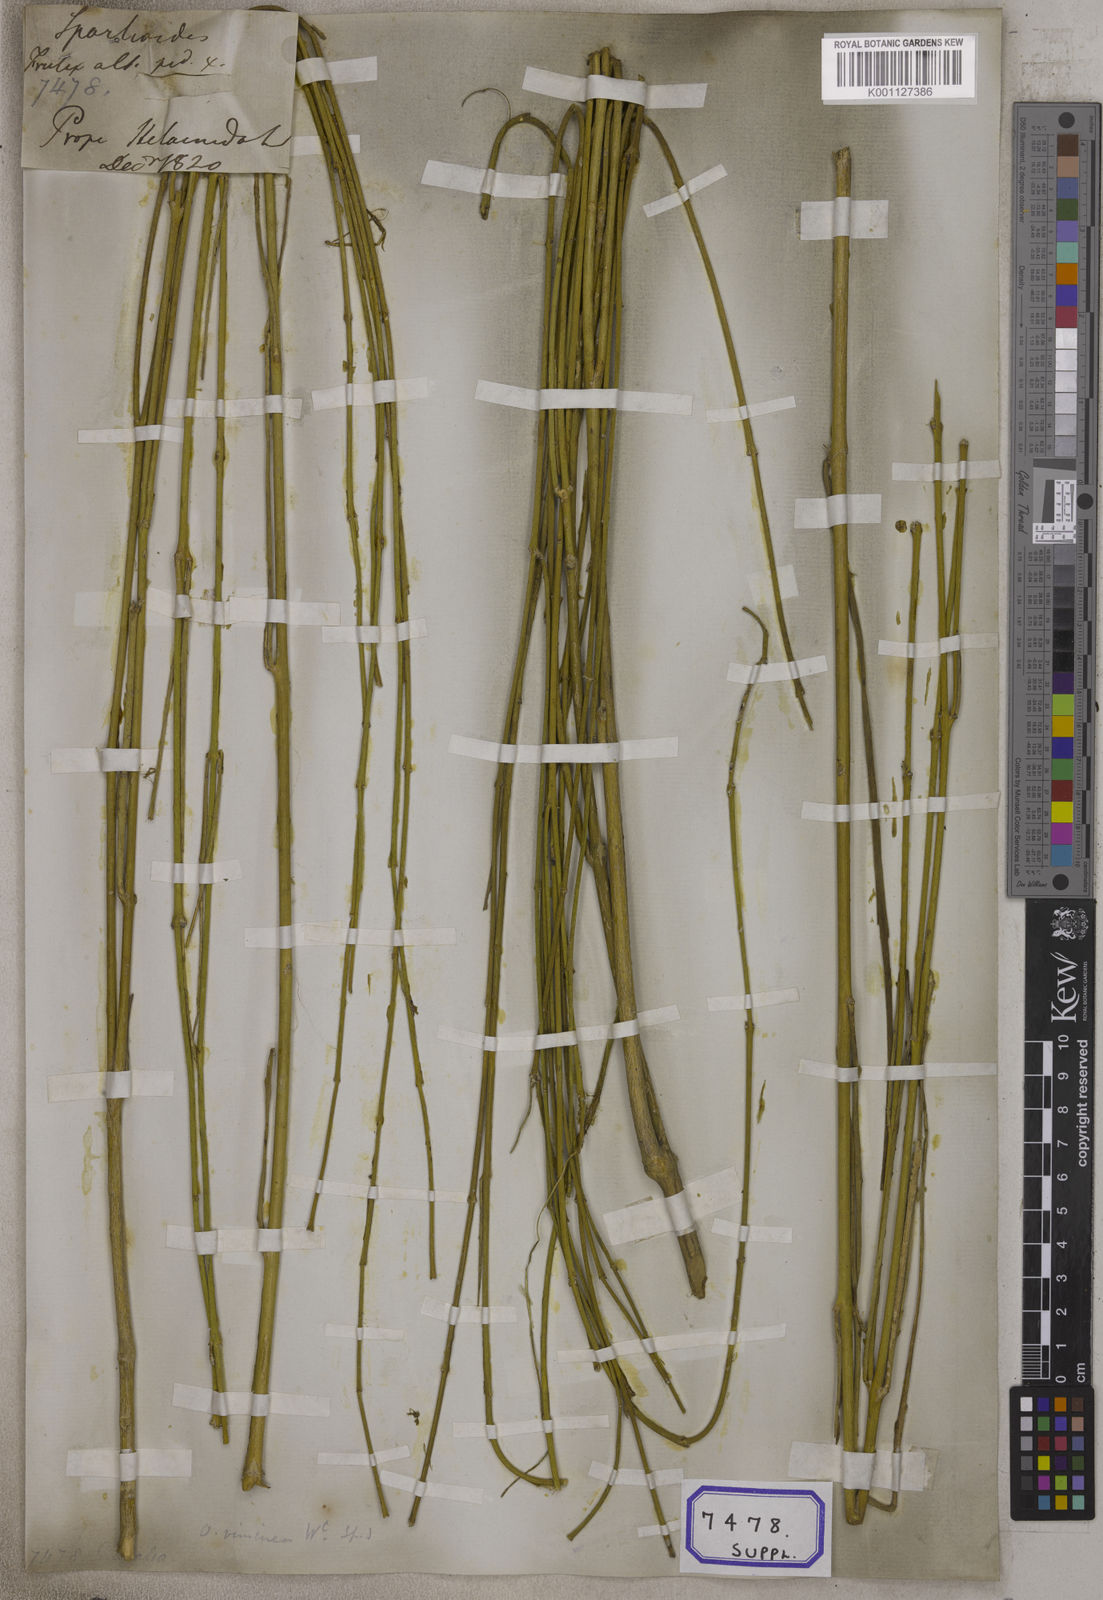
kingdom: Plantae
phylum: Tracheophyta
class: Magnoliopsida
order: Gentianales
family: Apocynaceae
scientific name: Apocynaceae
